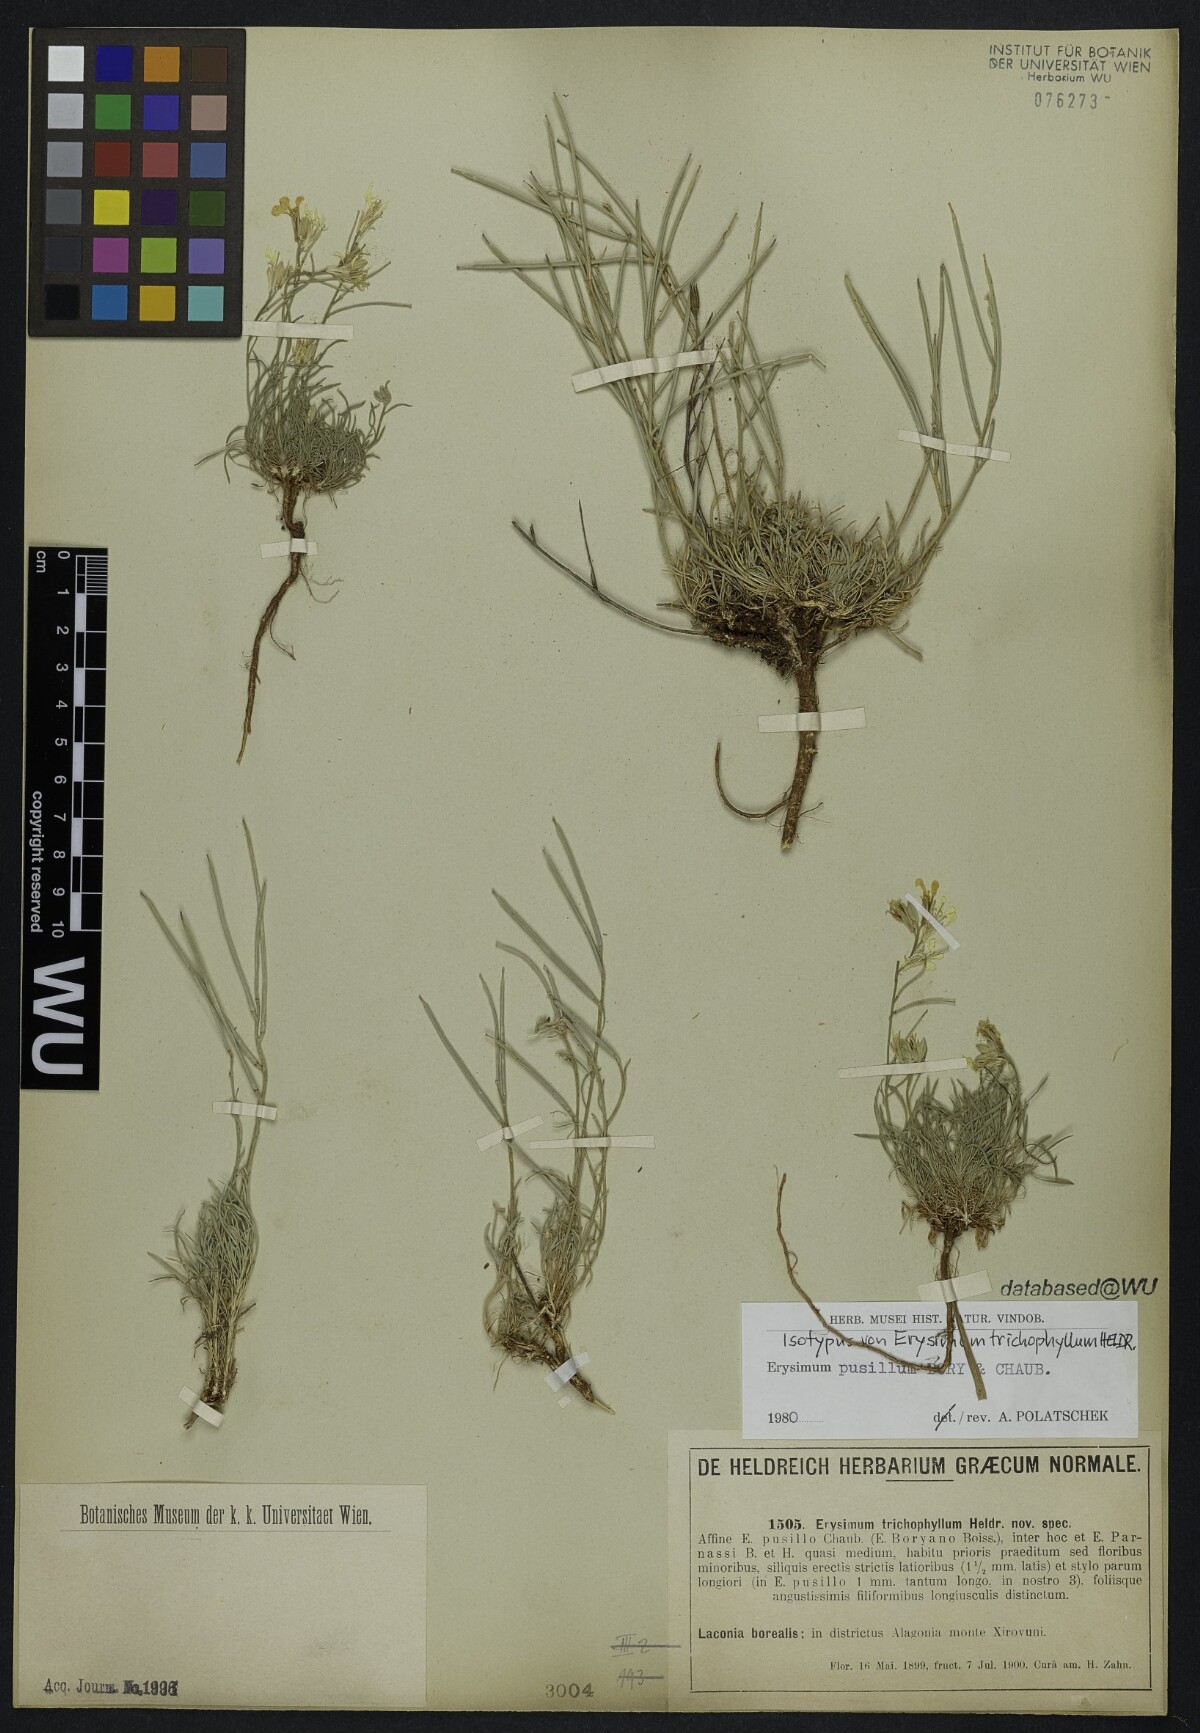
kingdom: Plantae
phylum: Tracheophyta
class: Magnoliopsida
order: Brassicales
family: Brassicaceae
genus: Erysimum
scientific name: Erysimum pusillum
